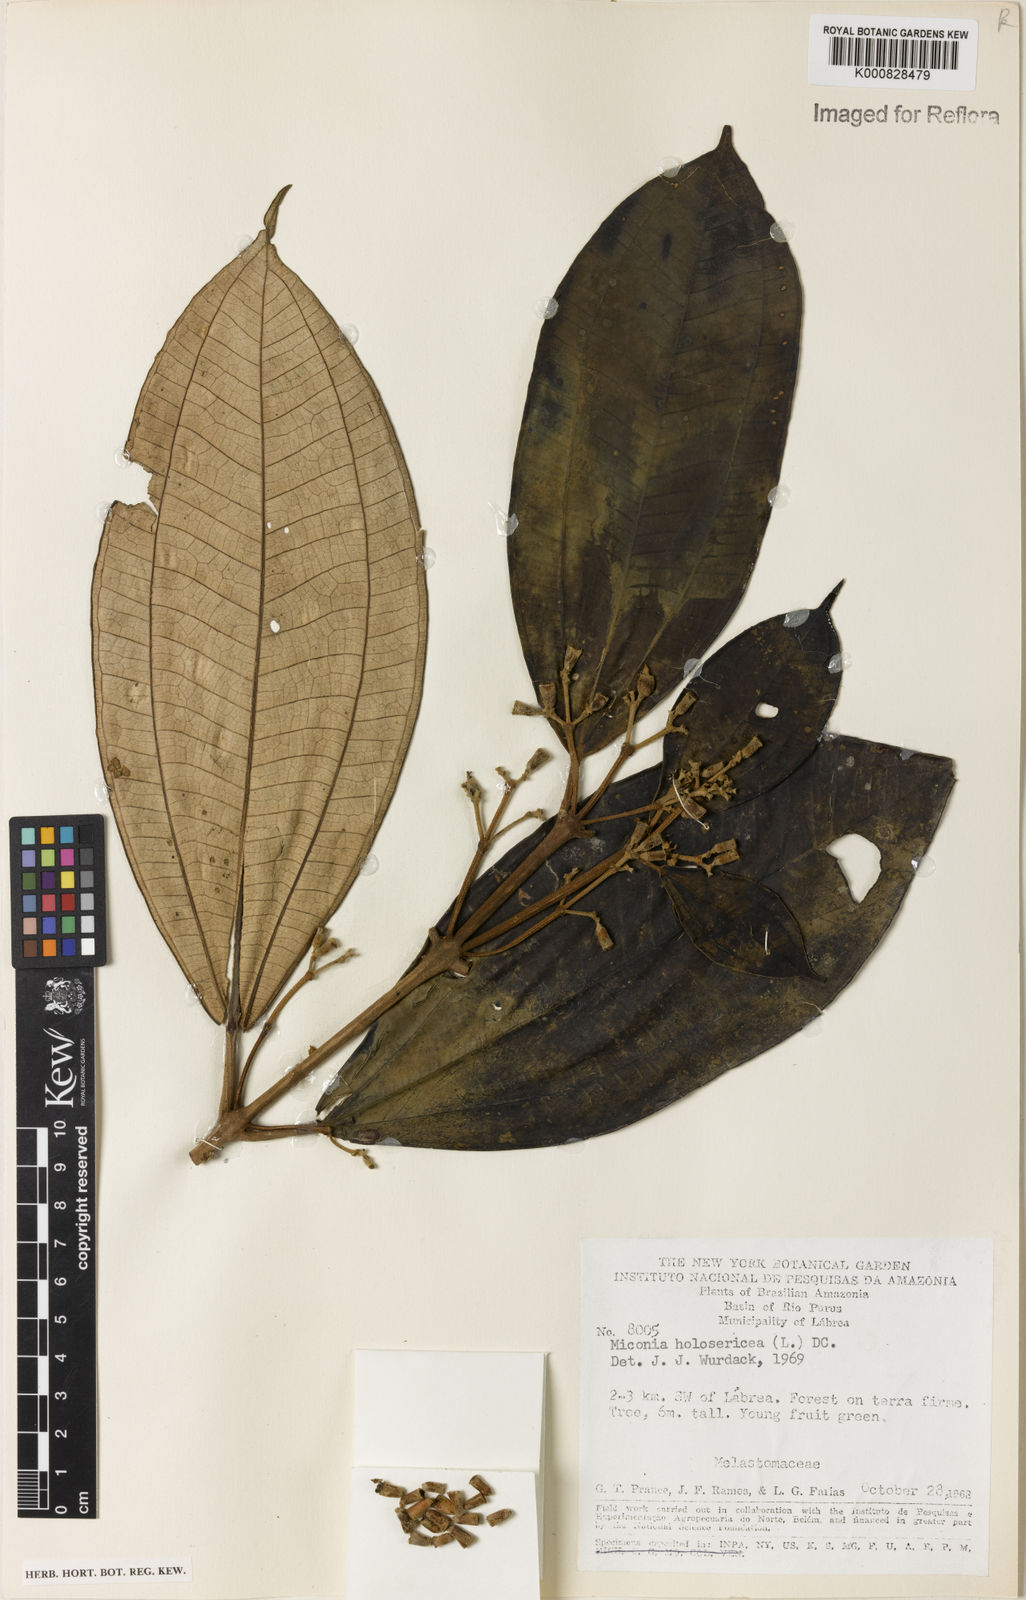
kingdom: Plantae
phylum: Tracheophyta
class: Magnoliopsida
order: Myrtales
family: Melastomataceae
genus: Miconia
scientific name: Miconia holosericea
